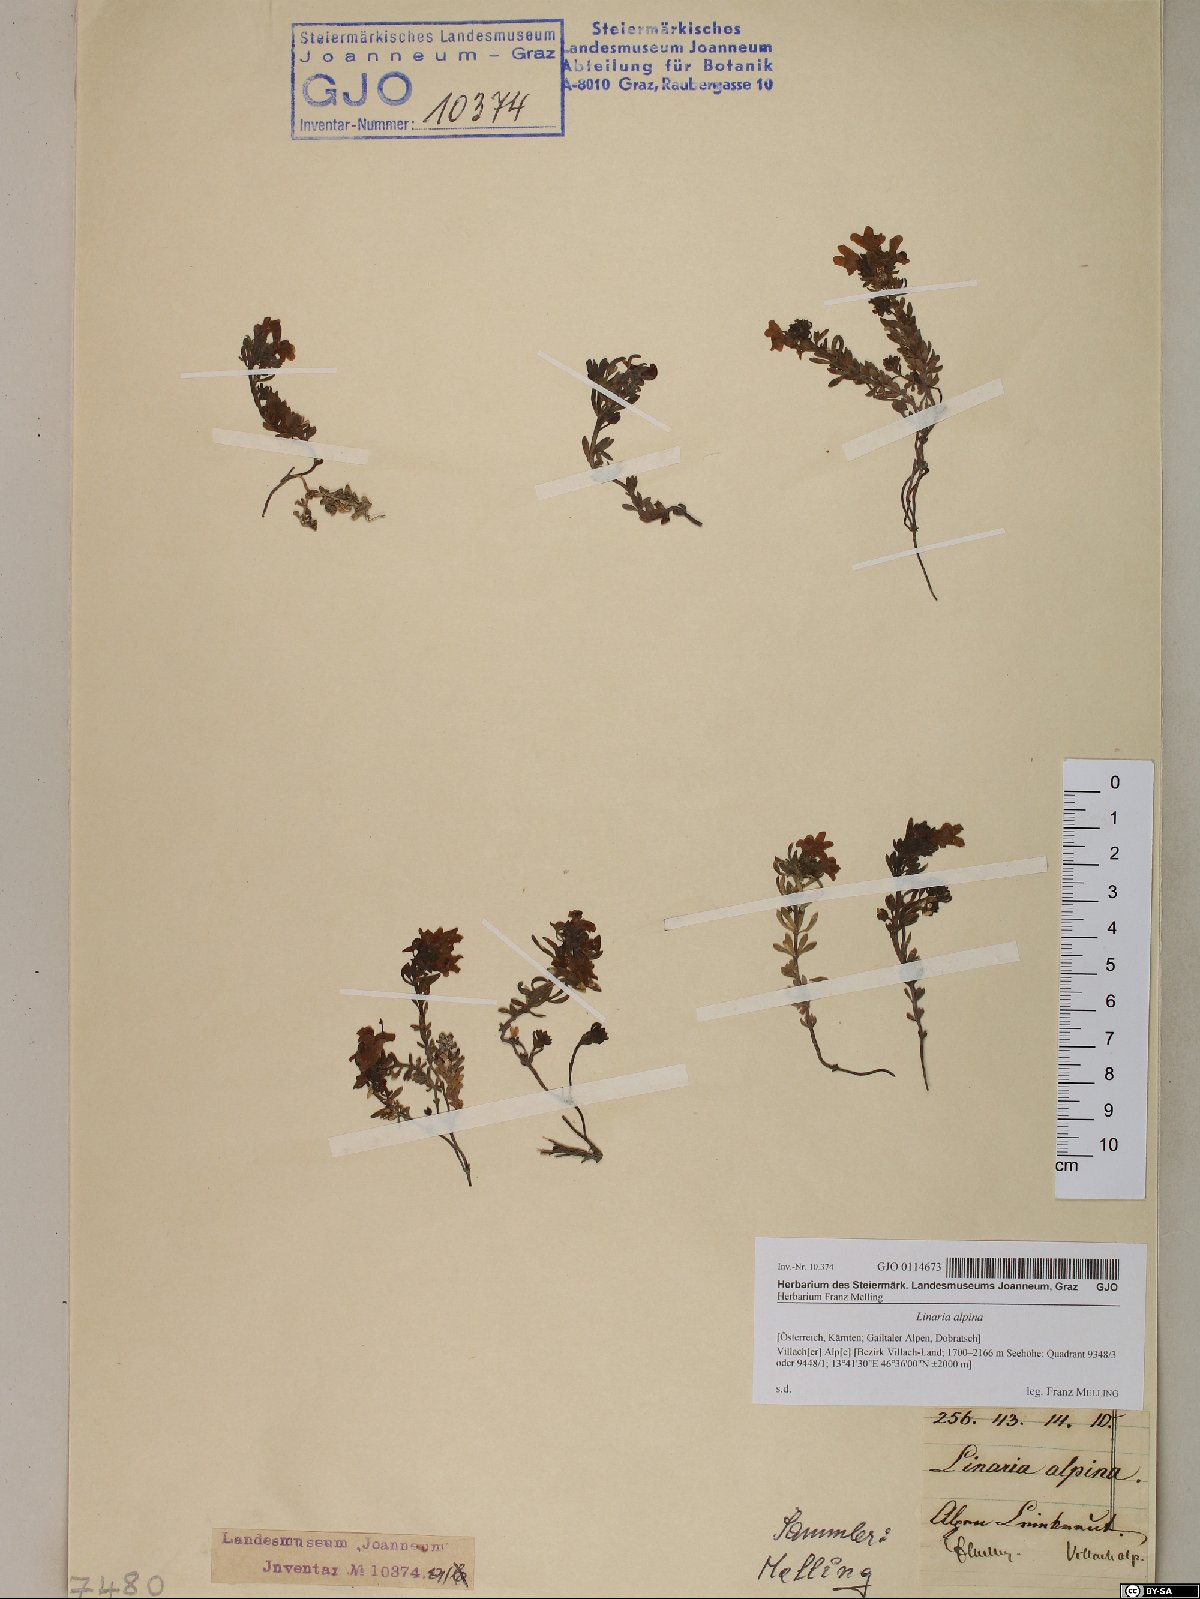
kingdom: Plantae
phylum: Tracheophyta
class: Magnoliopsida
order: Lamiales
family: Plantaginaceae
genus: Linaria
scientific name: Linaria alpina
